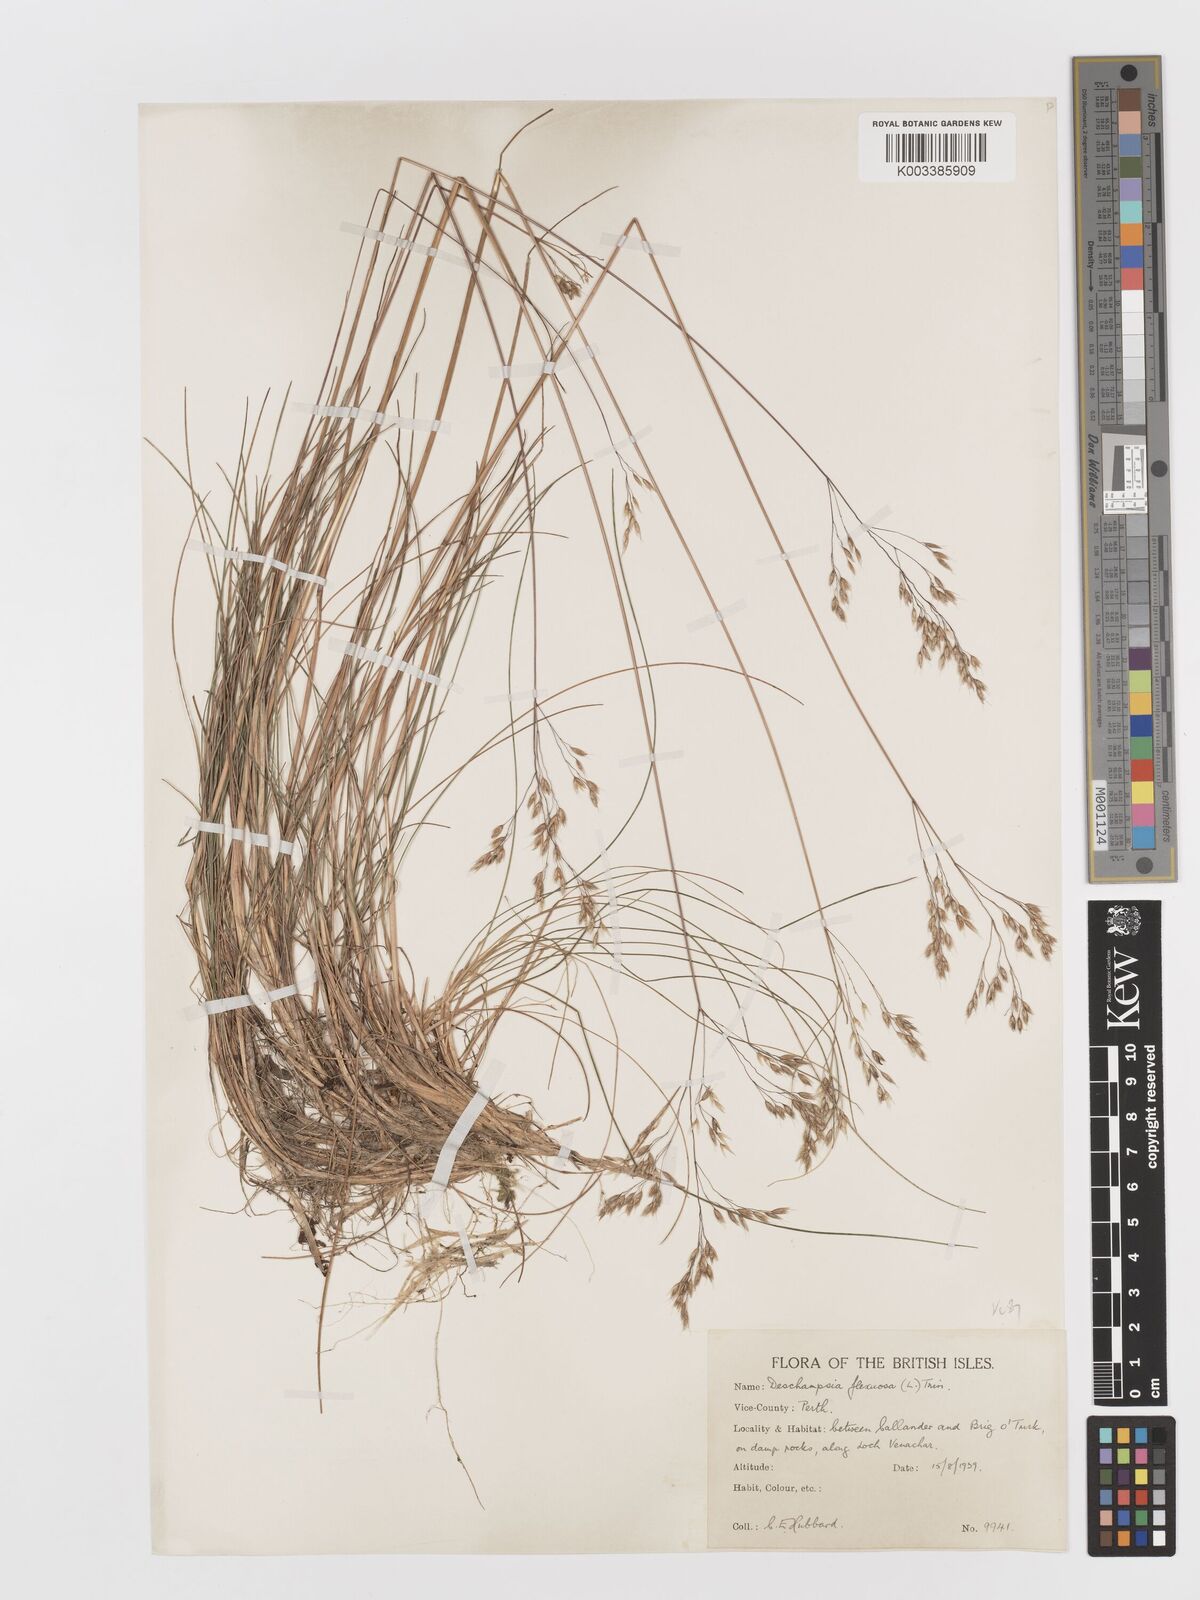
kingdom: Plantae
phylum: Tracheophyta
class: Liliopsida
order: Poales
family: Poaceae
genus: Avenella
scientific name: Avenella flexuosa
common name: Wavy hairgrass
